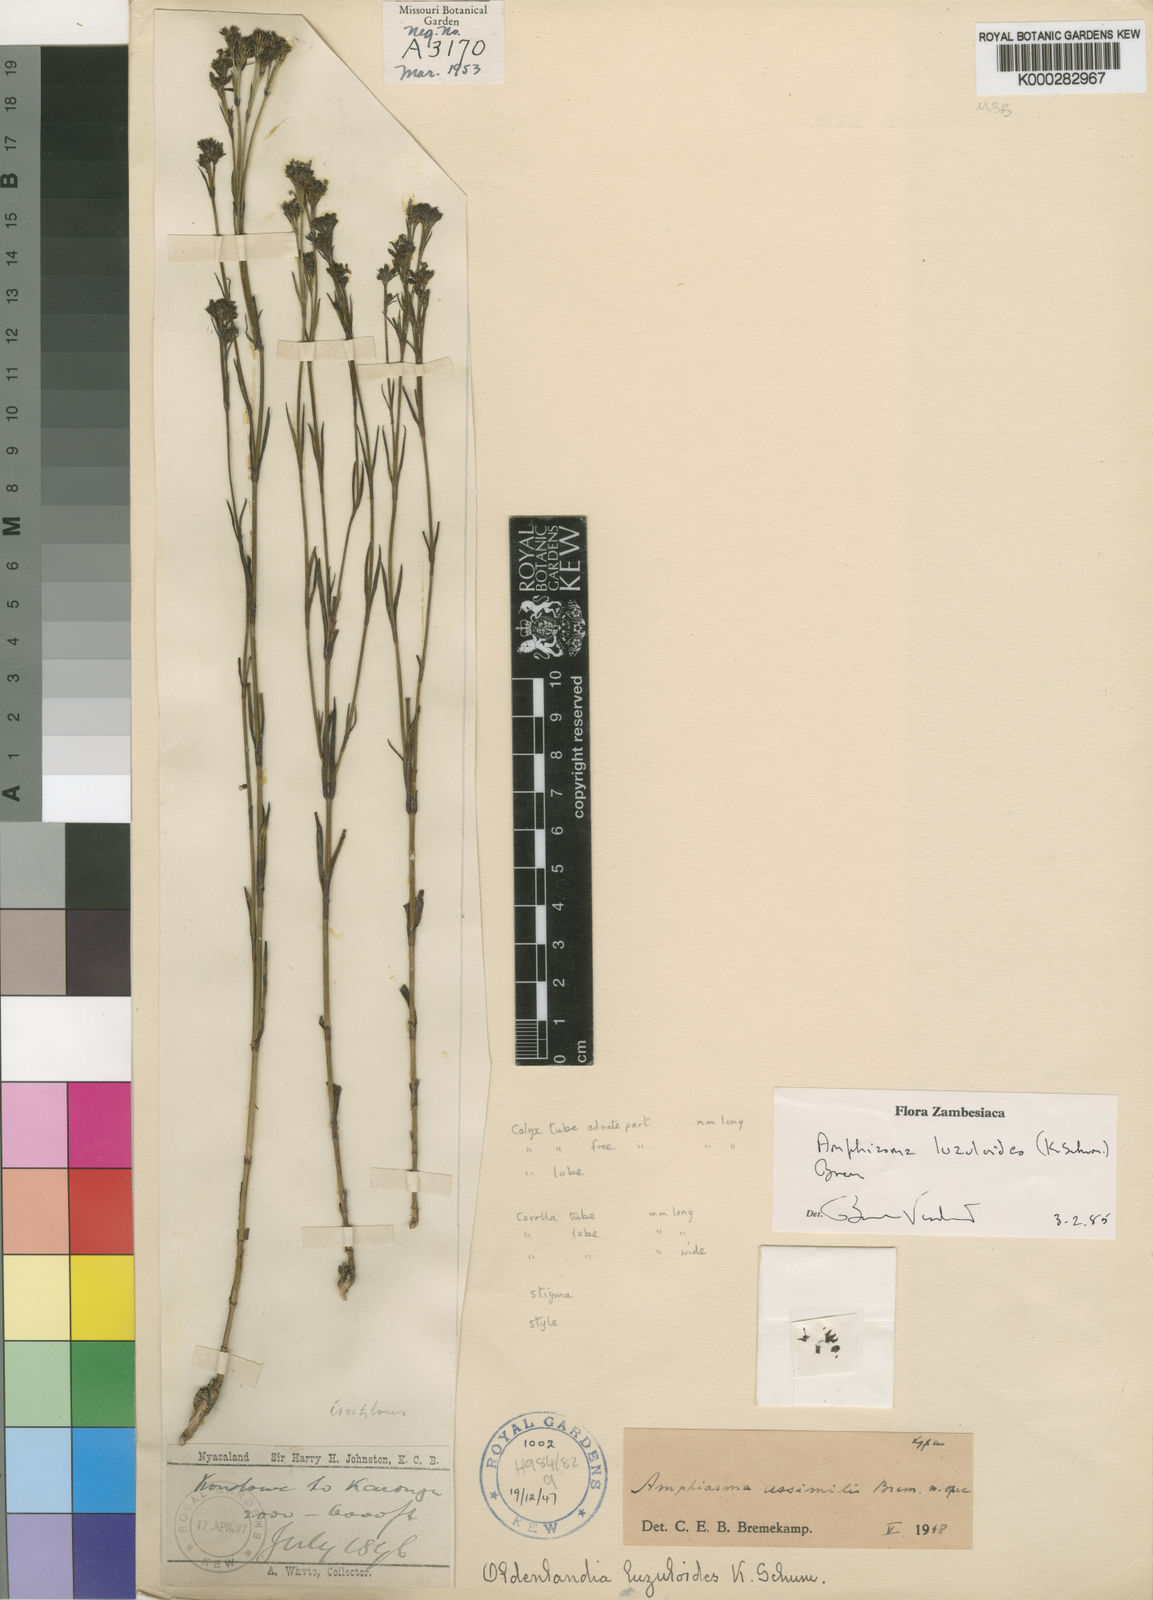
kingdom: Plantae
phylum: Tracheophyta
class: Magnoliopsida
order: Gentianales
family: Rubiaceae
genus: Amphiasma
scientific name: Amphiasma luzuloides
